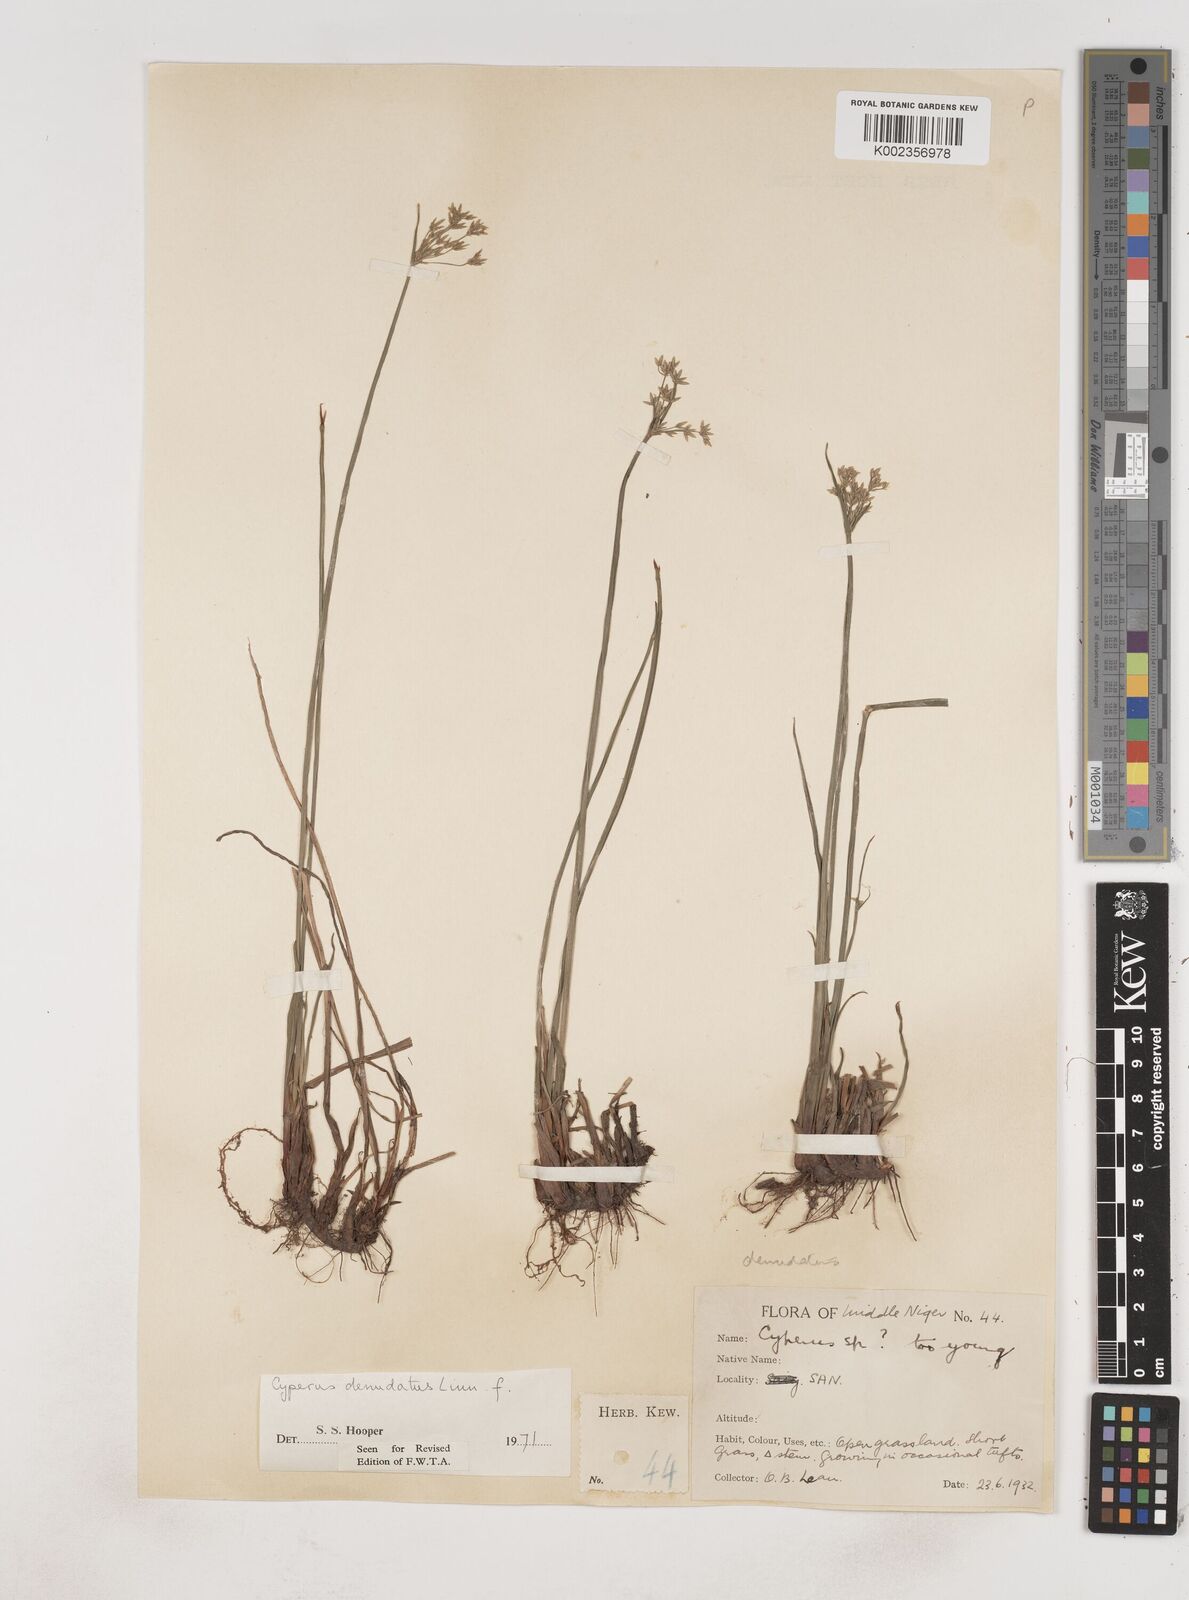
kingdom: Plantae
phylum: Tracheophyta
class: Liliopsida
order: Poales
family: Cyperaceae
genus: Cyperus
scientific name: Cyperus denudatus
